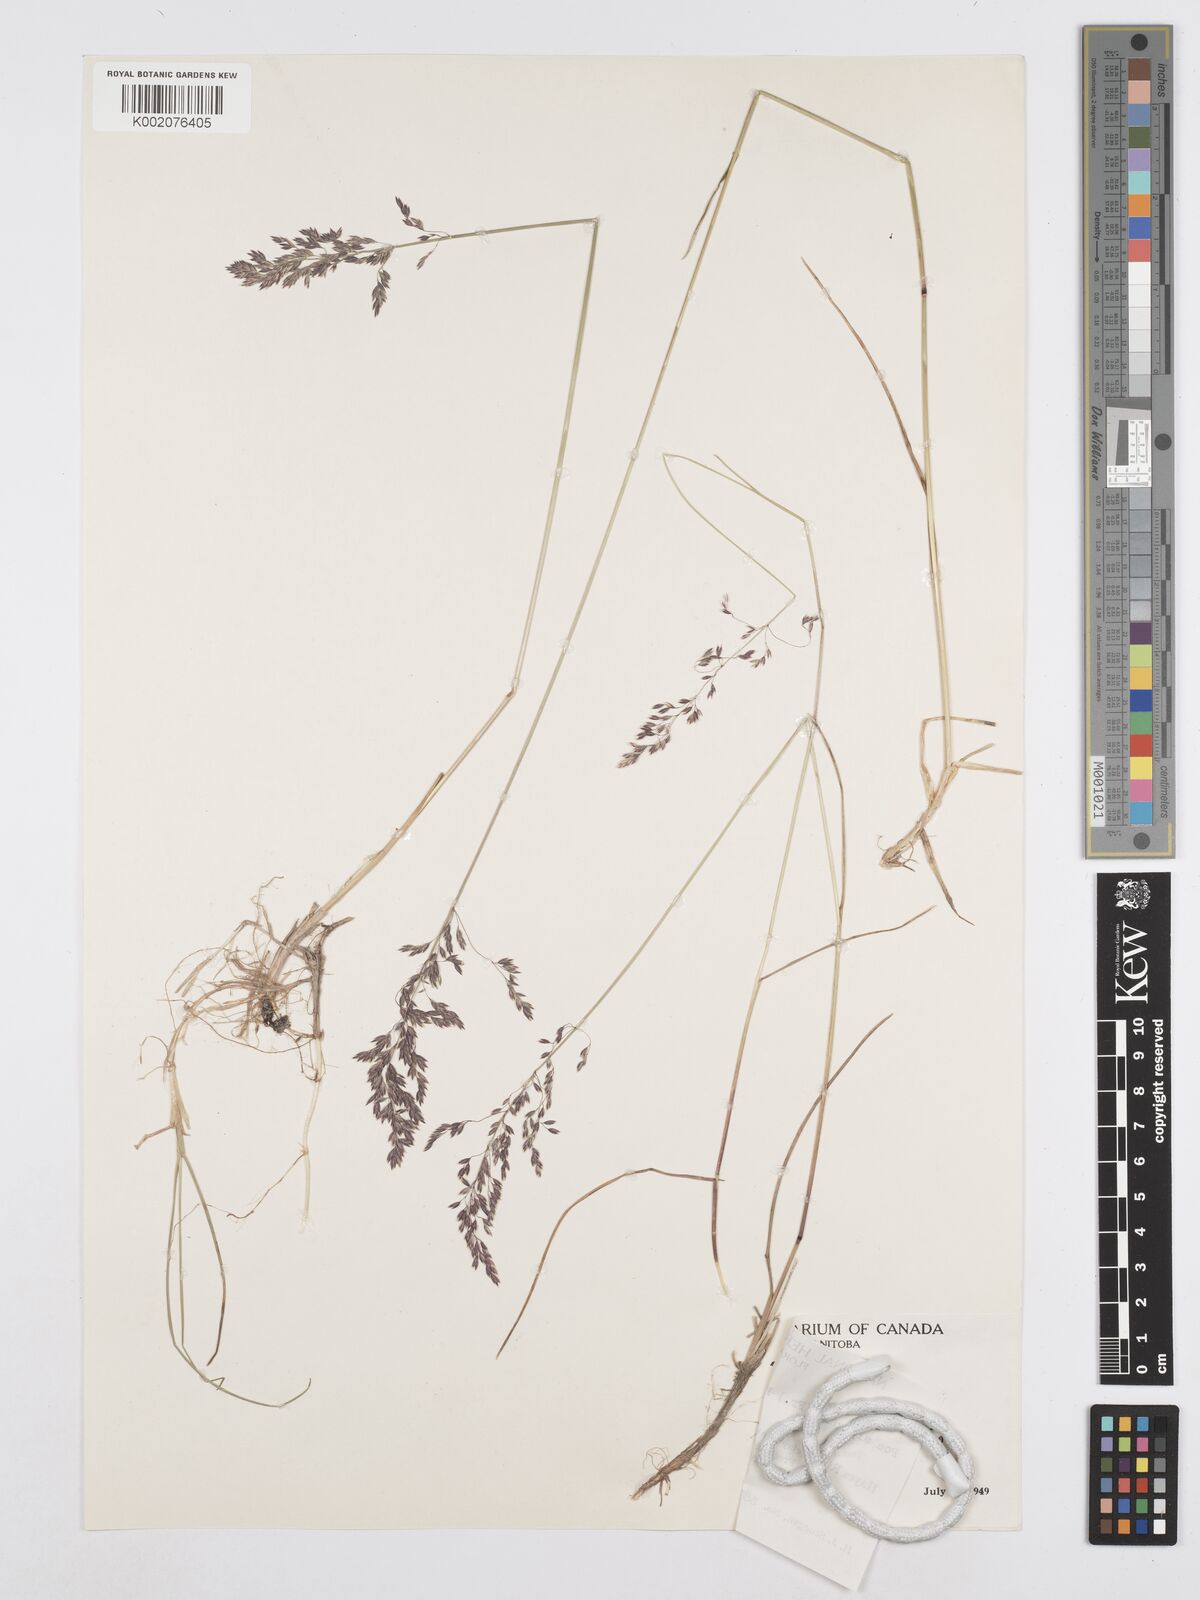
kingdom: Plantae
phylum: Tracheophyta
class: Liliopsida
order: Poales
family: Poaceae
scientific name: Poaceae
